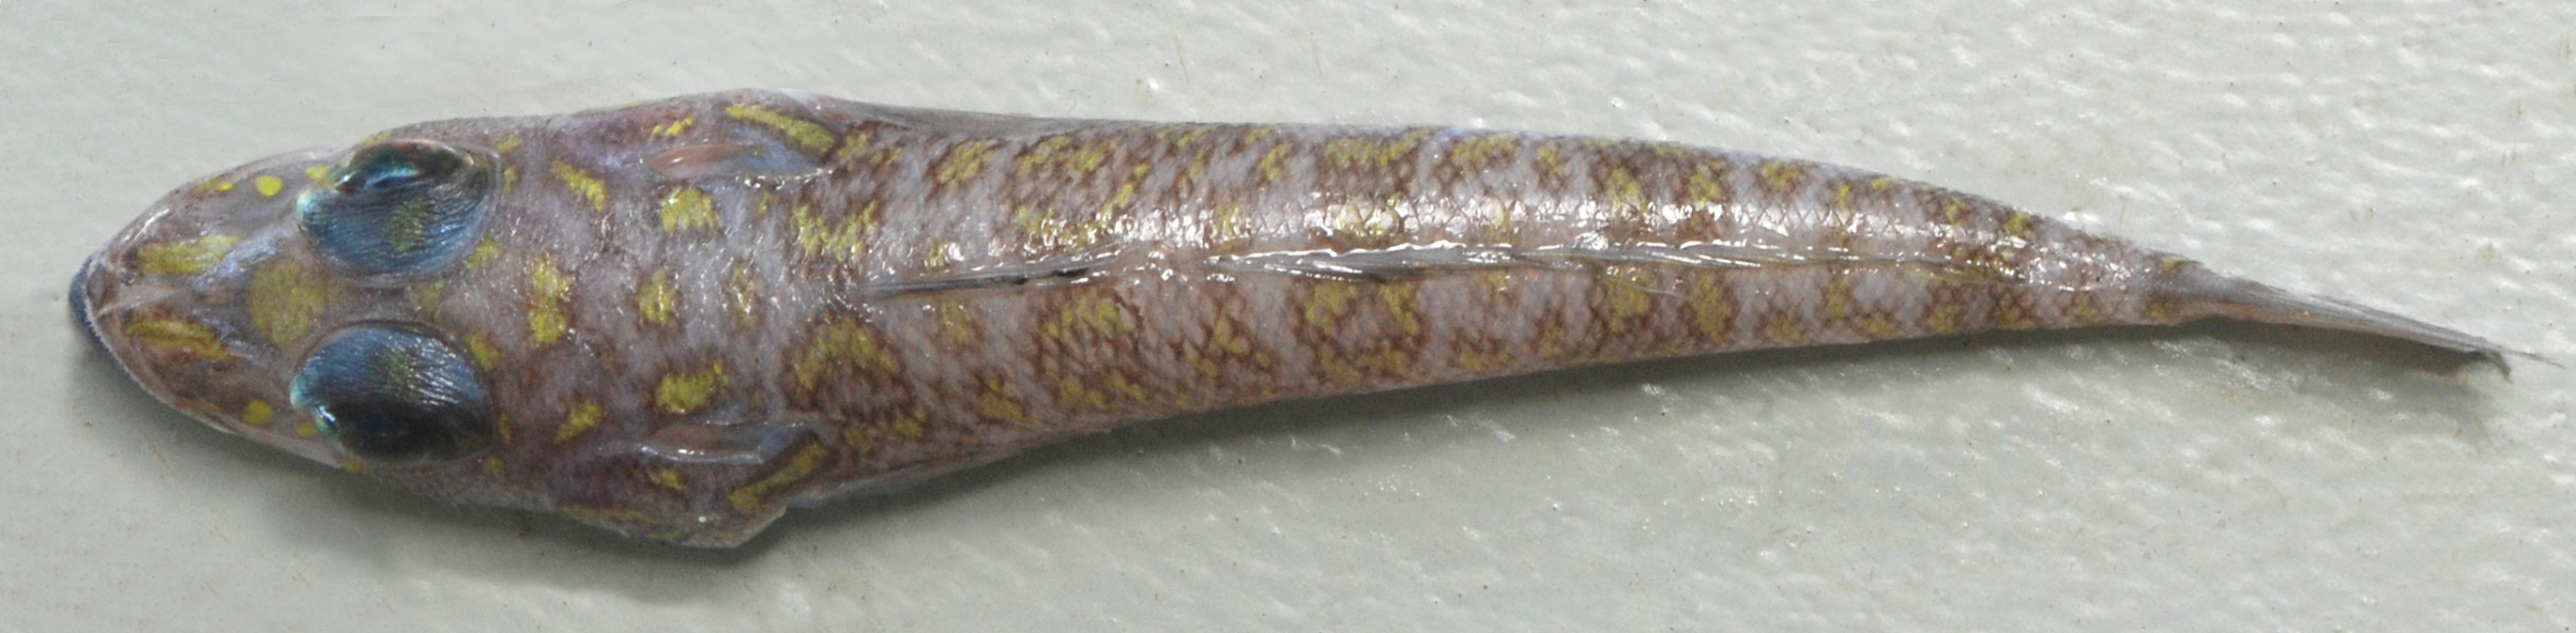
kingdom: Animalia
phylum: Chordata
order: Perciformes
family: Percophidae
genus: Bembrops
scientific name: Bembrops platyrhynchus
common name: Natal duckbill
